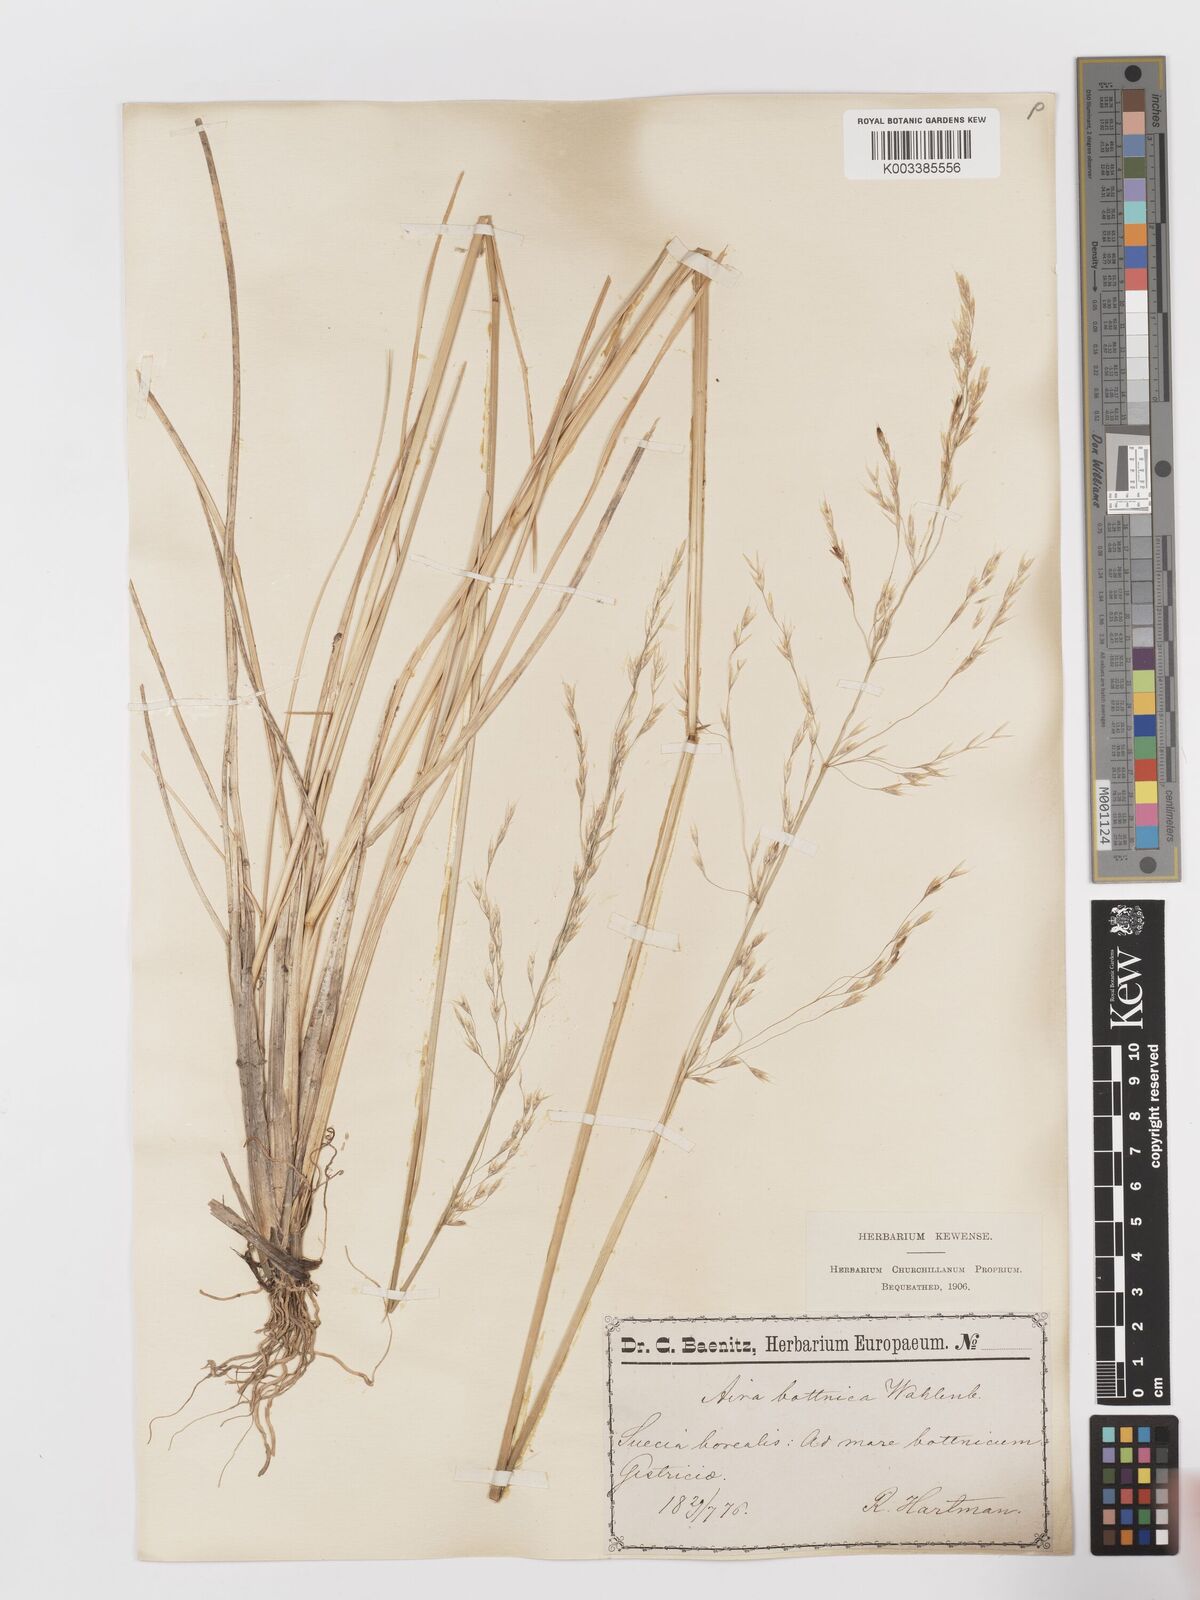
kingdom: Plantae
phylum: Tracheophyta
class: Liliopsida
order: Poales
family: Poaceae
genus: Deschampsia
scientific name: Deschampsia cespitosa
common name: Tufted hair-grass
